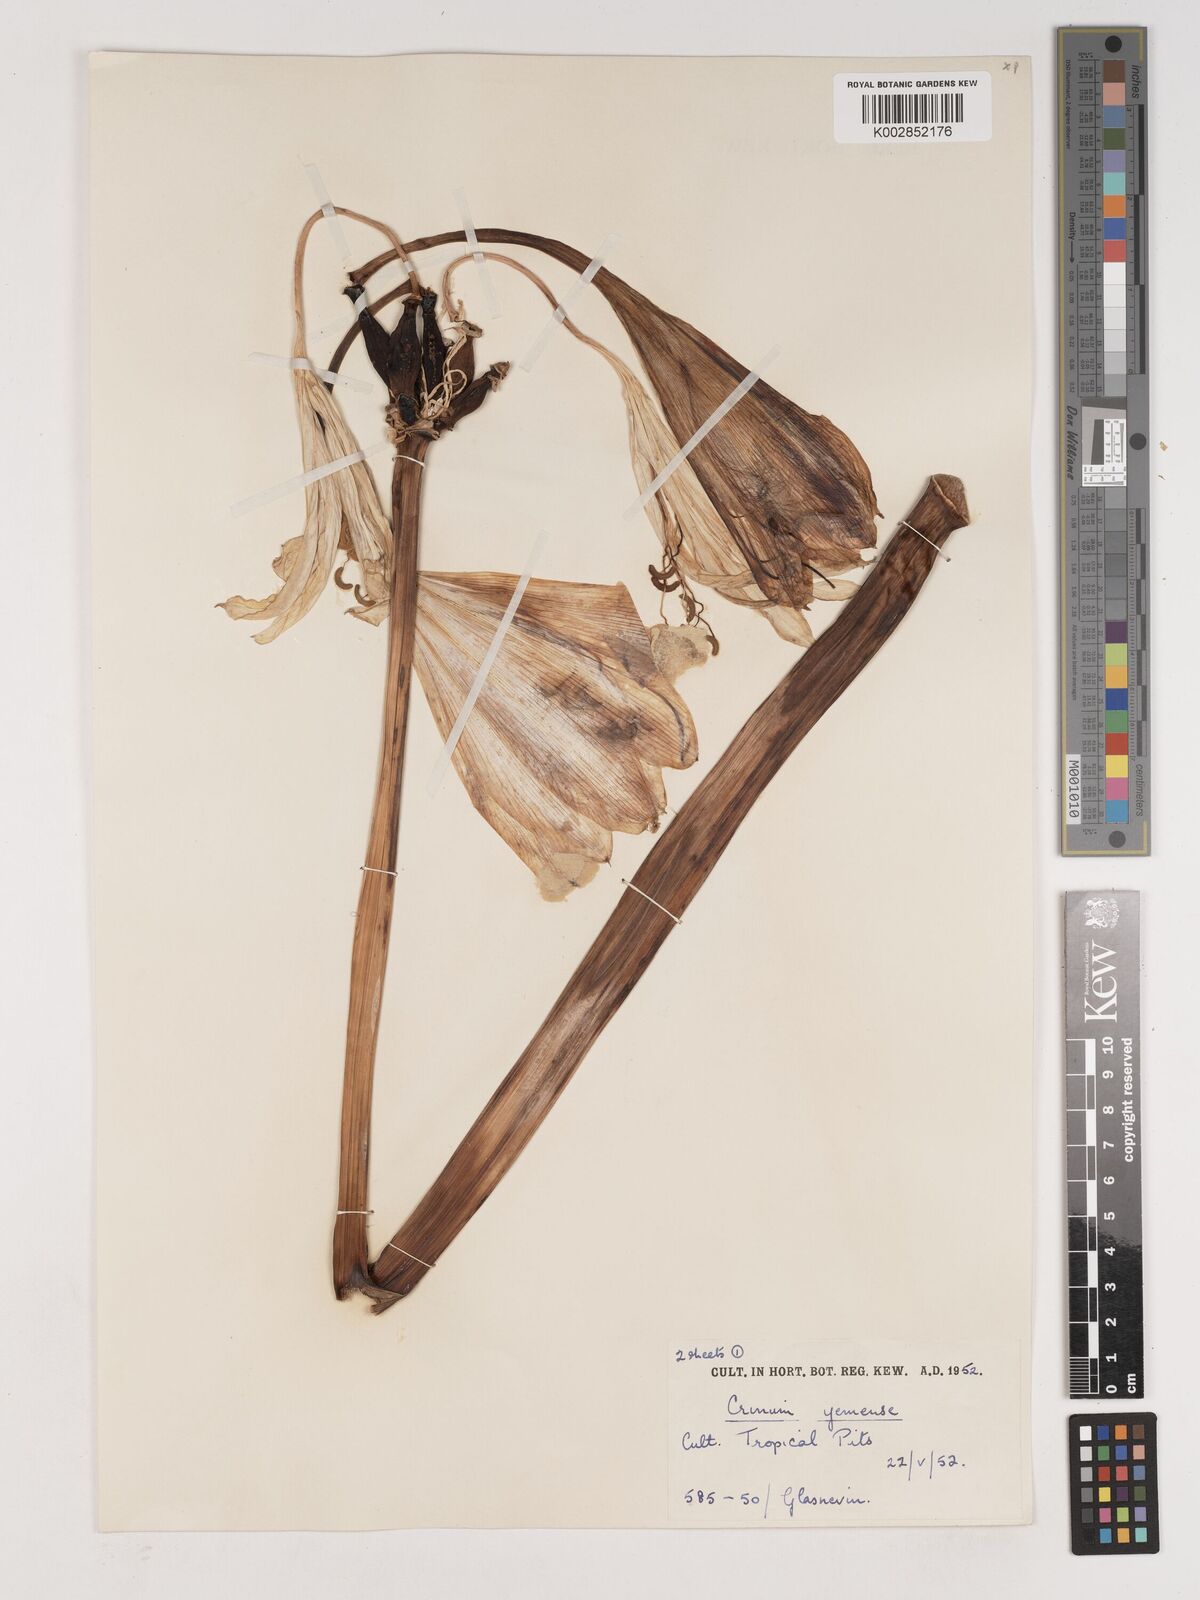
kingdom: Plantae
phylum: Tracheophyta
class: Liliopsida
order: Asparagales
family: Amaryllidaceae
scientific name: Amaryllidaceae
